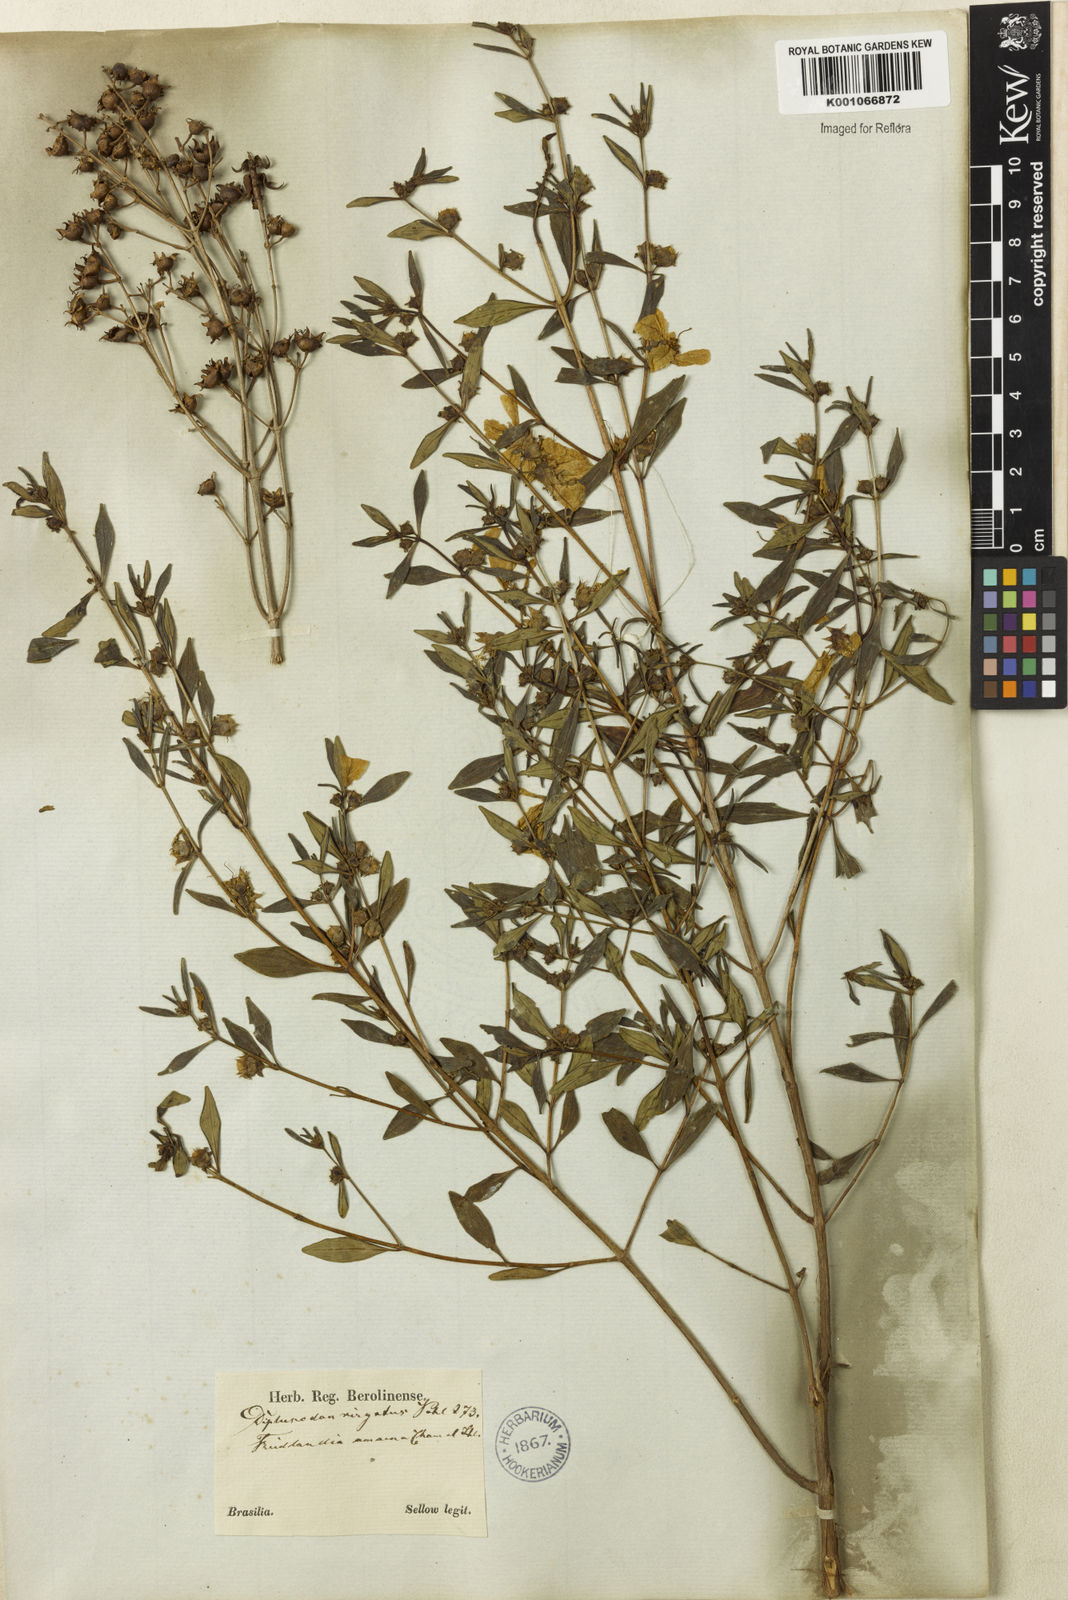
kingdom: Plantae
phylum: Tracheophyta
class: Magnoliopsida
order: Myrtales
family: Lythraceae
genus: Diplusodon
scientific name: Diplusodon virgatus
